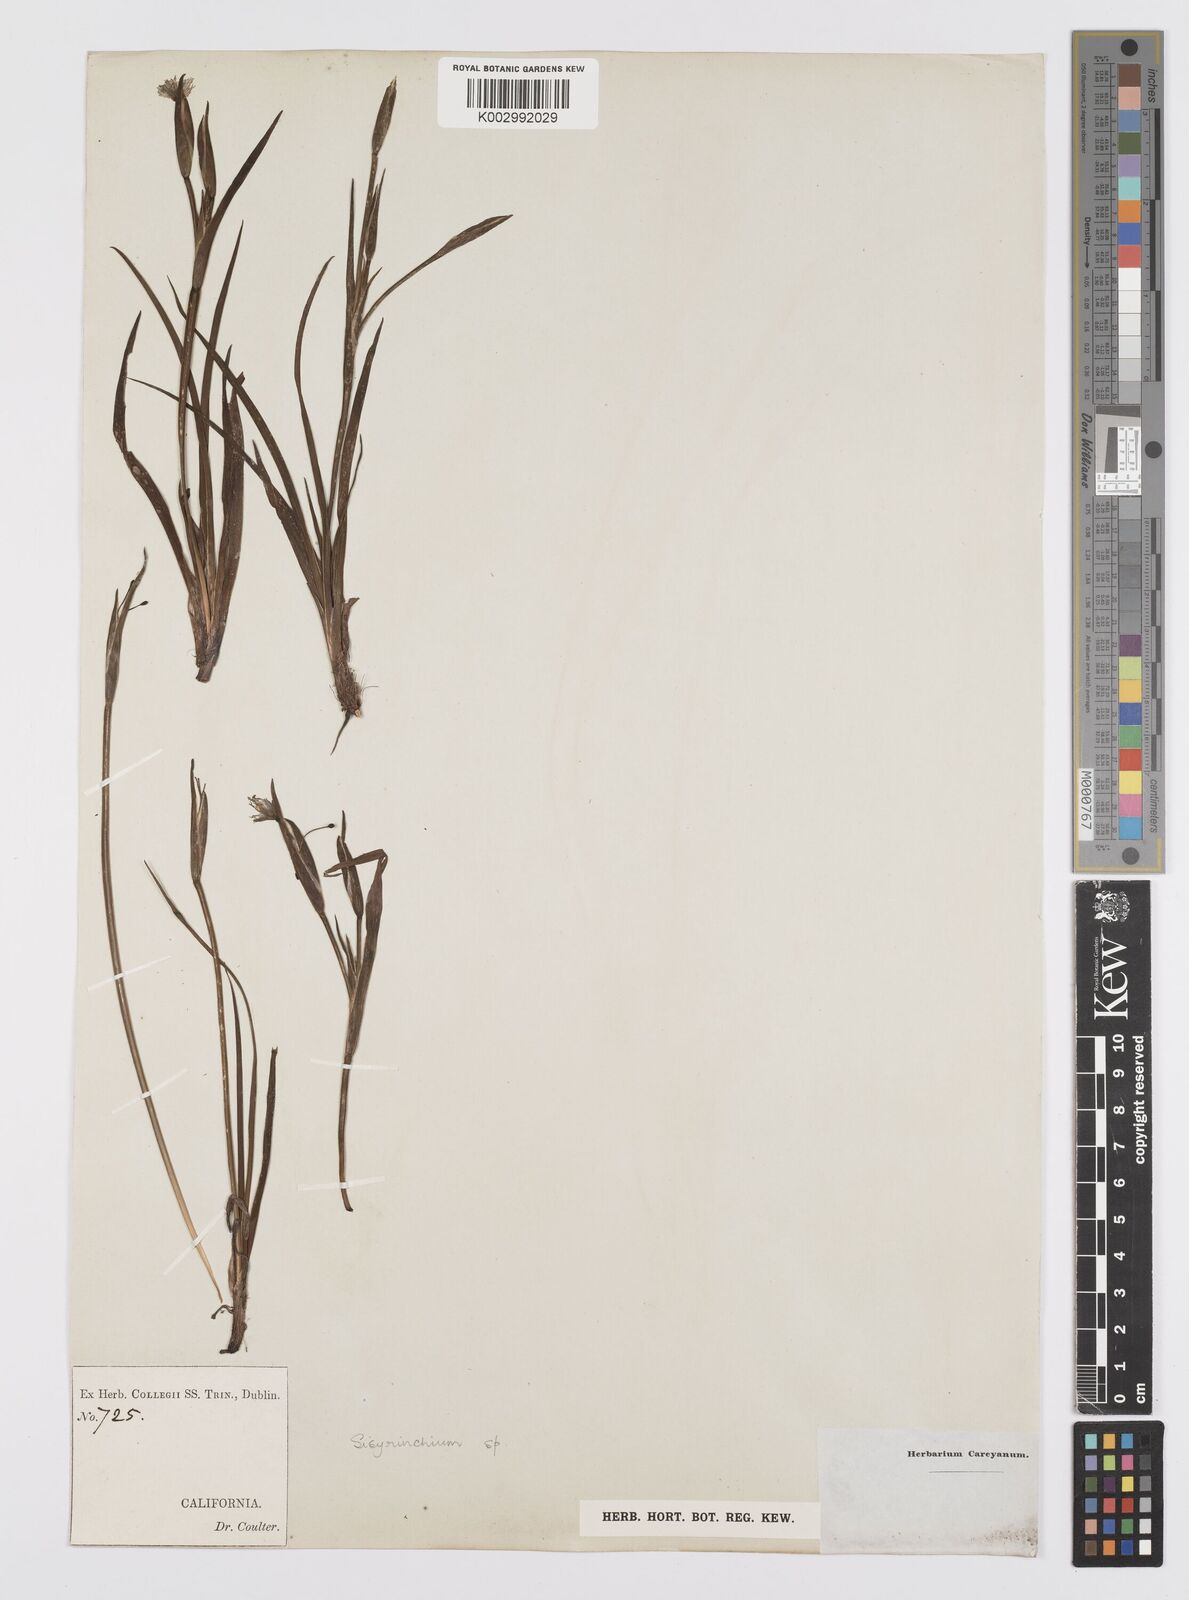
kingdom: Plantae
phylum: Tracheophyta
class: Liliopsida
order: Asparagales
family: Iridaceae
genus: Sisyrinchium
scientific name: Sisyrinchium
